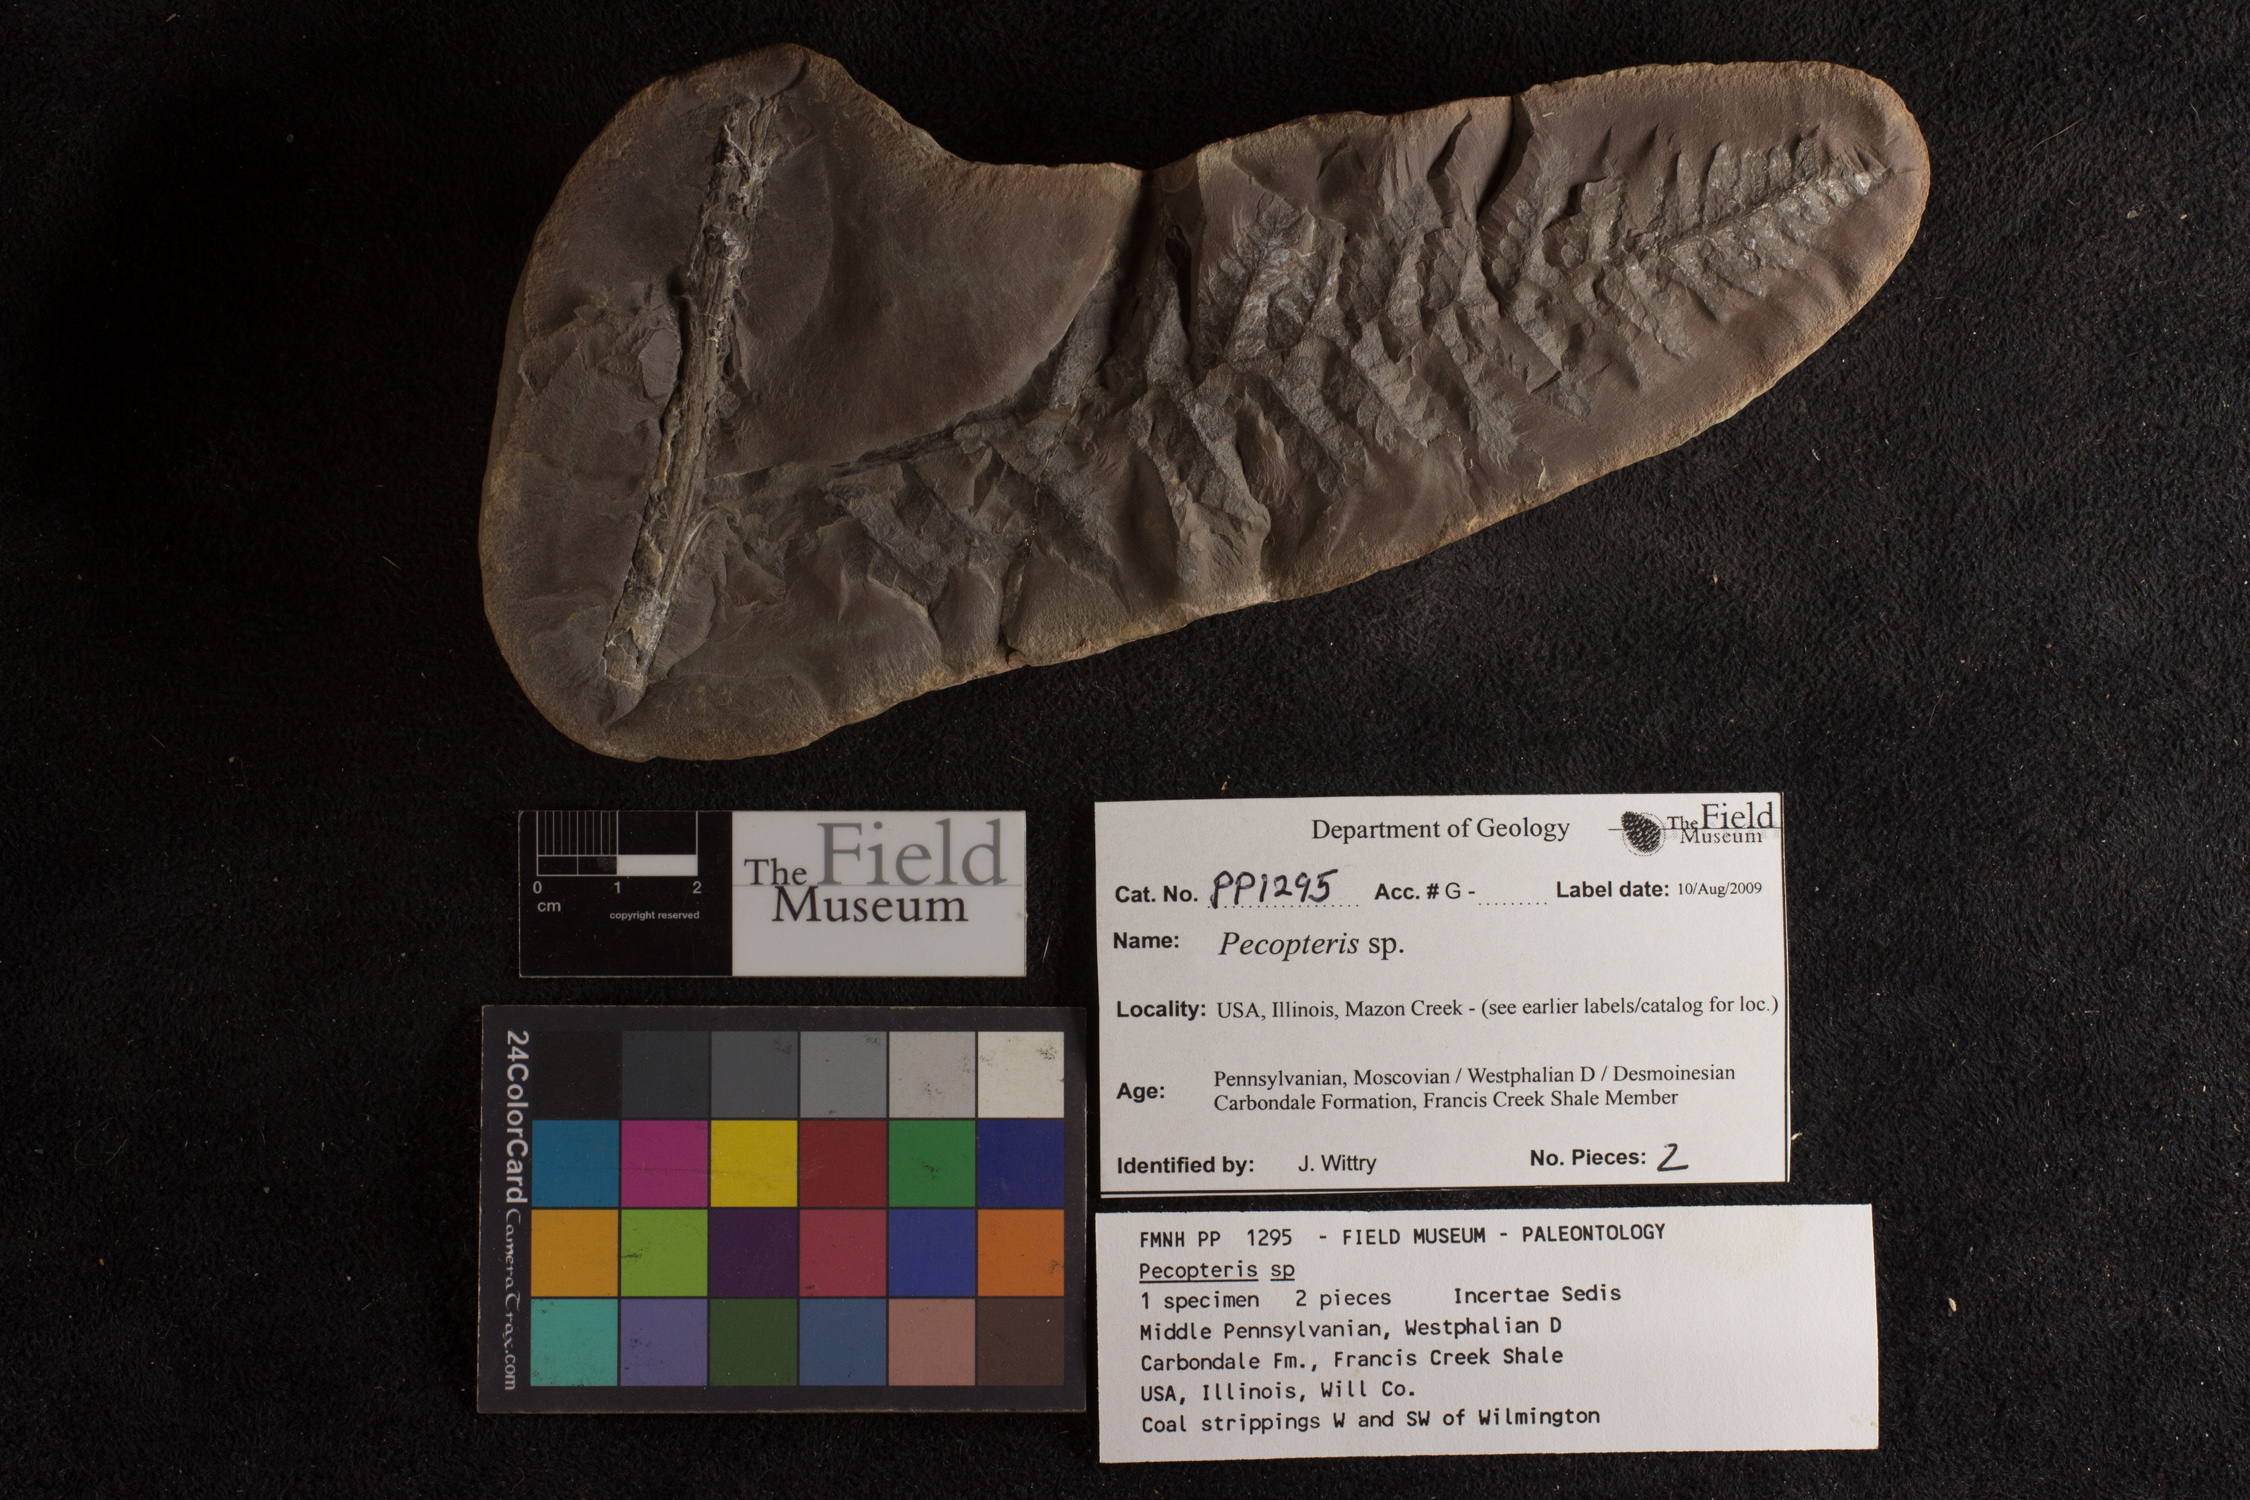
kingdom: Plantae
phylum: Tracheophyta
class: Polypodiopsida
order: Marattiales
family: Asterothecaceae
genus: Pecopteris
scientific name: Pecopteris
